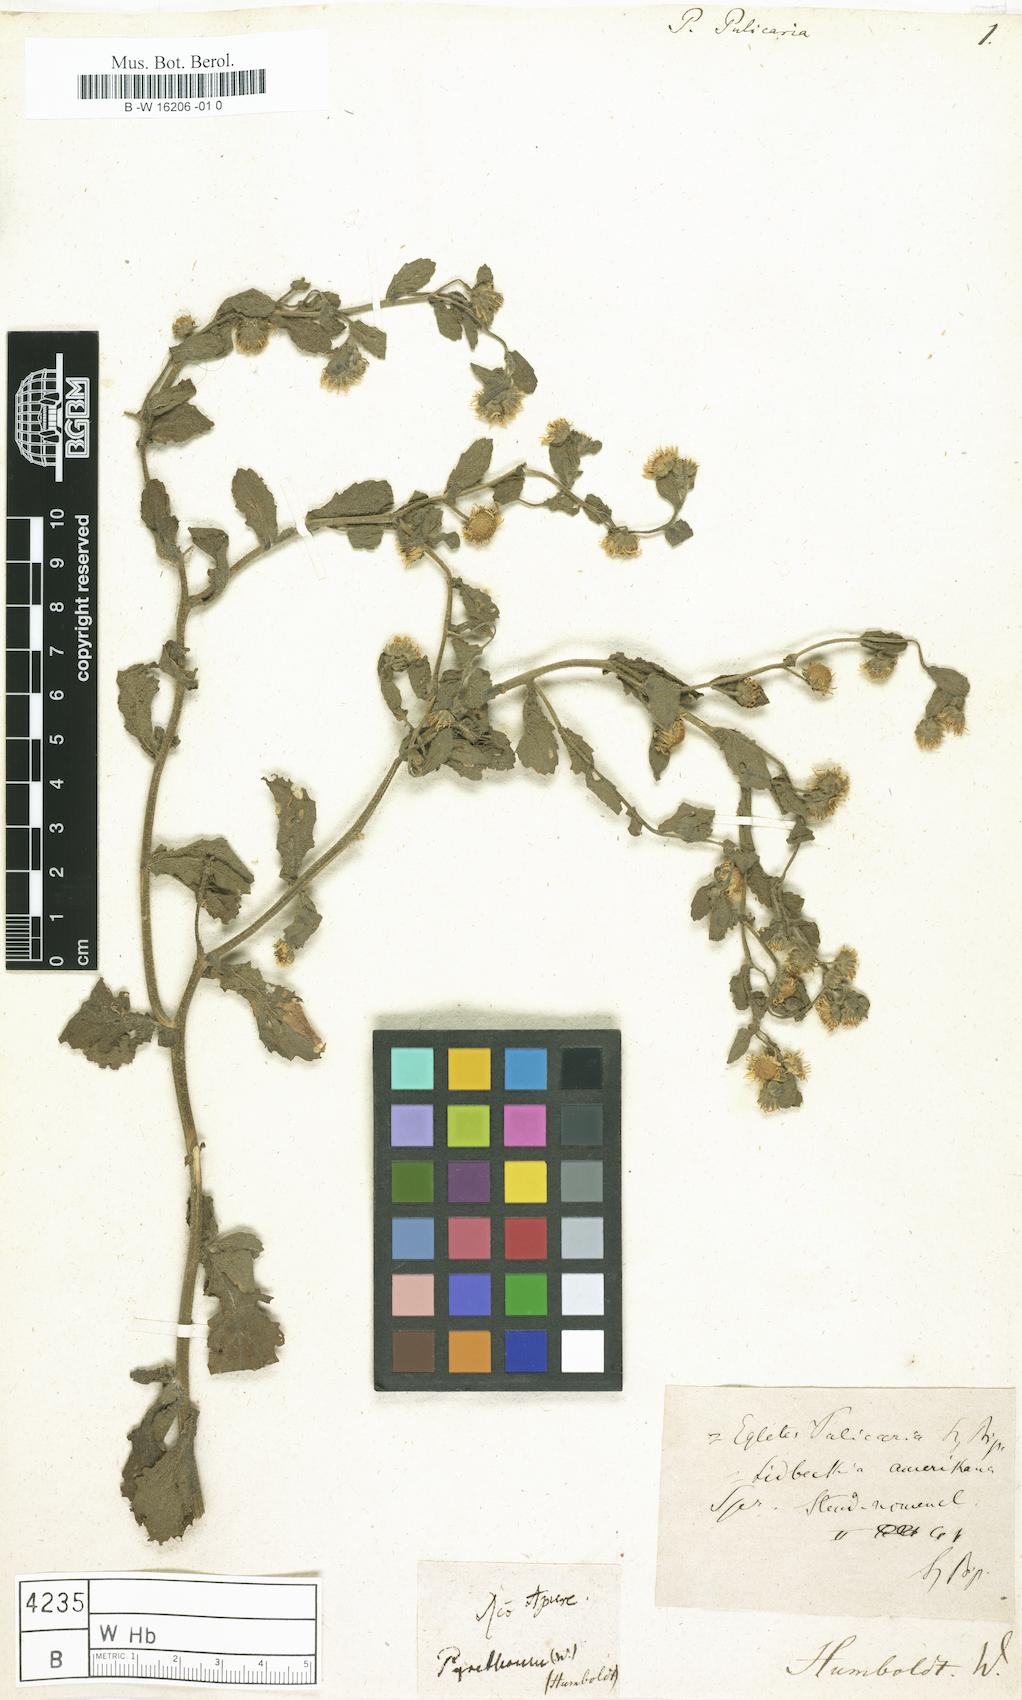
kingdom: Plantae
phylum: Tracheophyta
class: Magnoliopsida
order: Asterales
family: Asteraceae
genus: Tanacetum
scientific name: Tanacetum Pyrethrum pulicaria
